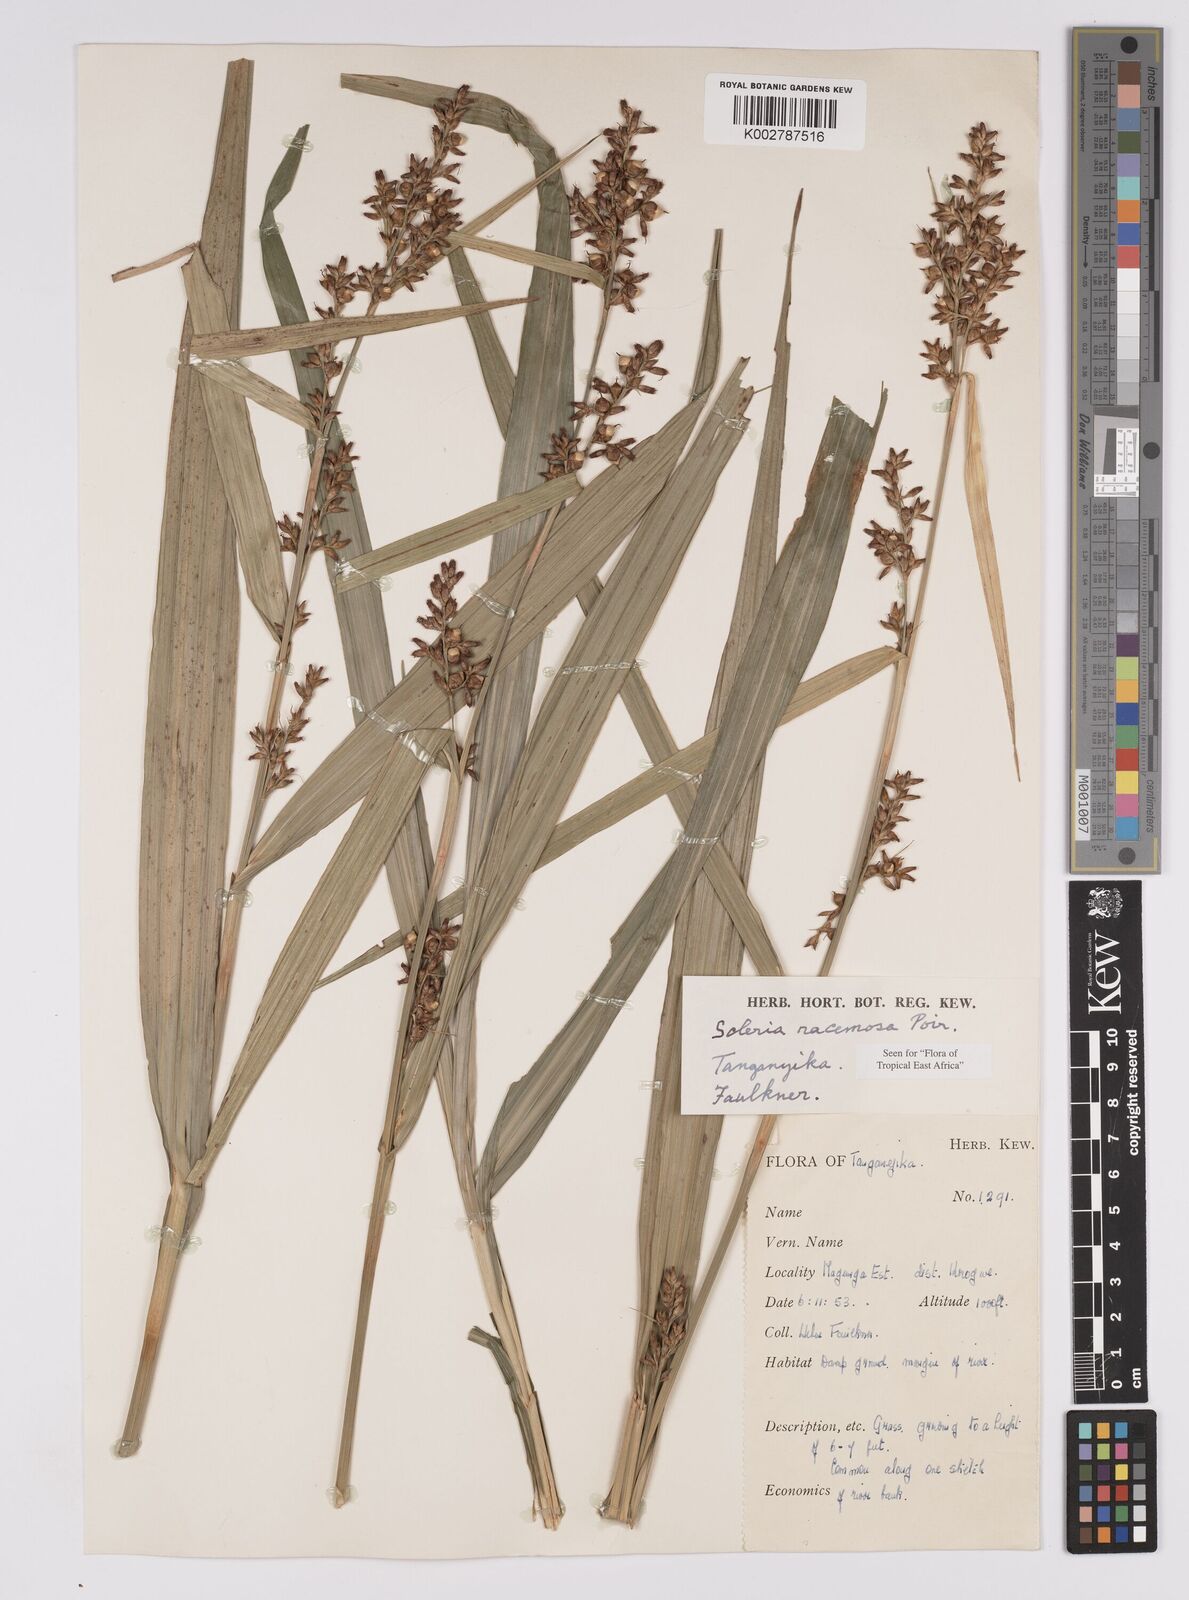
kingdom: Plantae
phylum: Tracheophyta
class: Liliopsida
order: Poales
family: Cyperaceae
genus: Scleria
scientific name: Scleria racemosa
